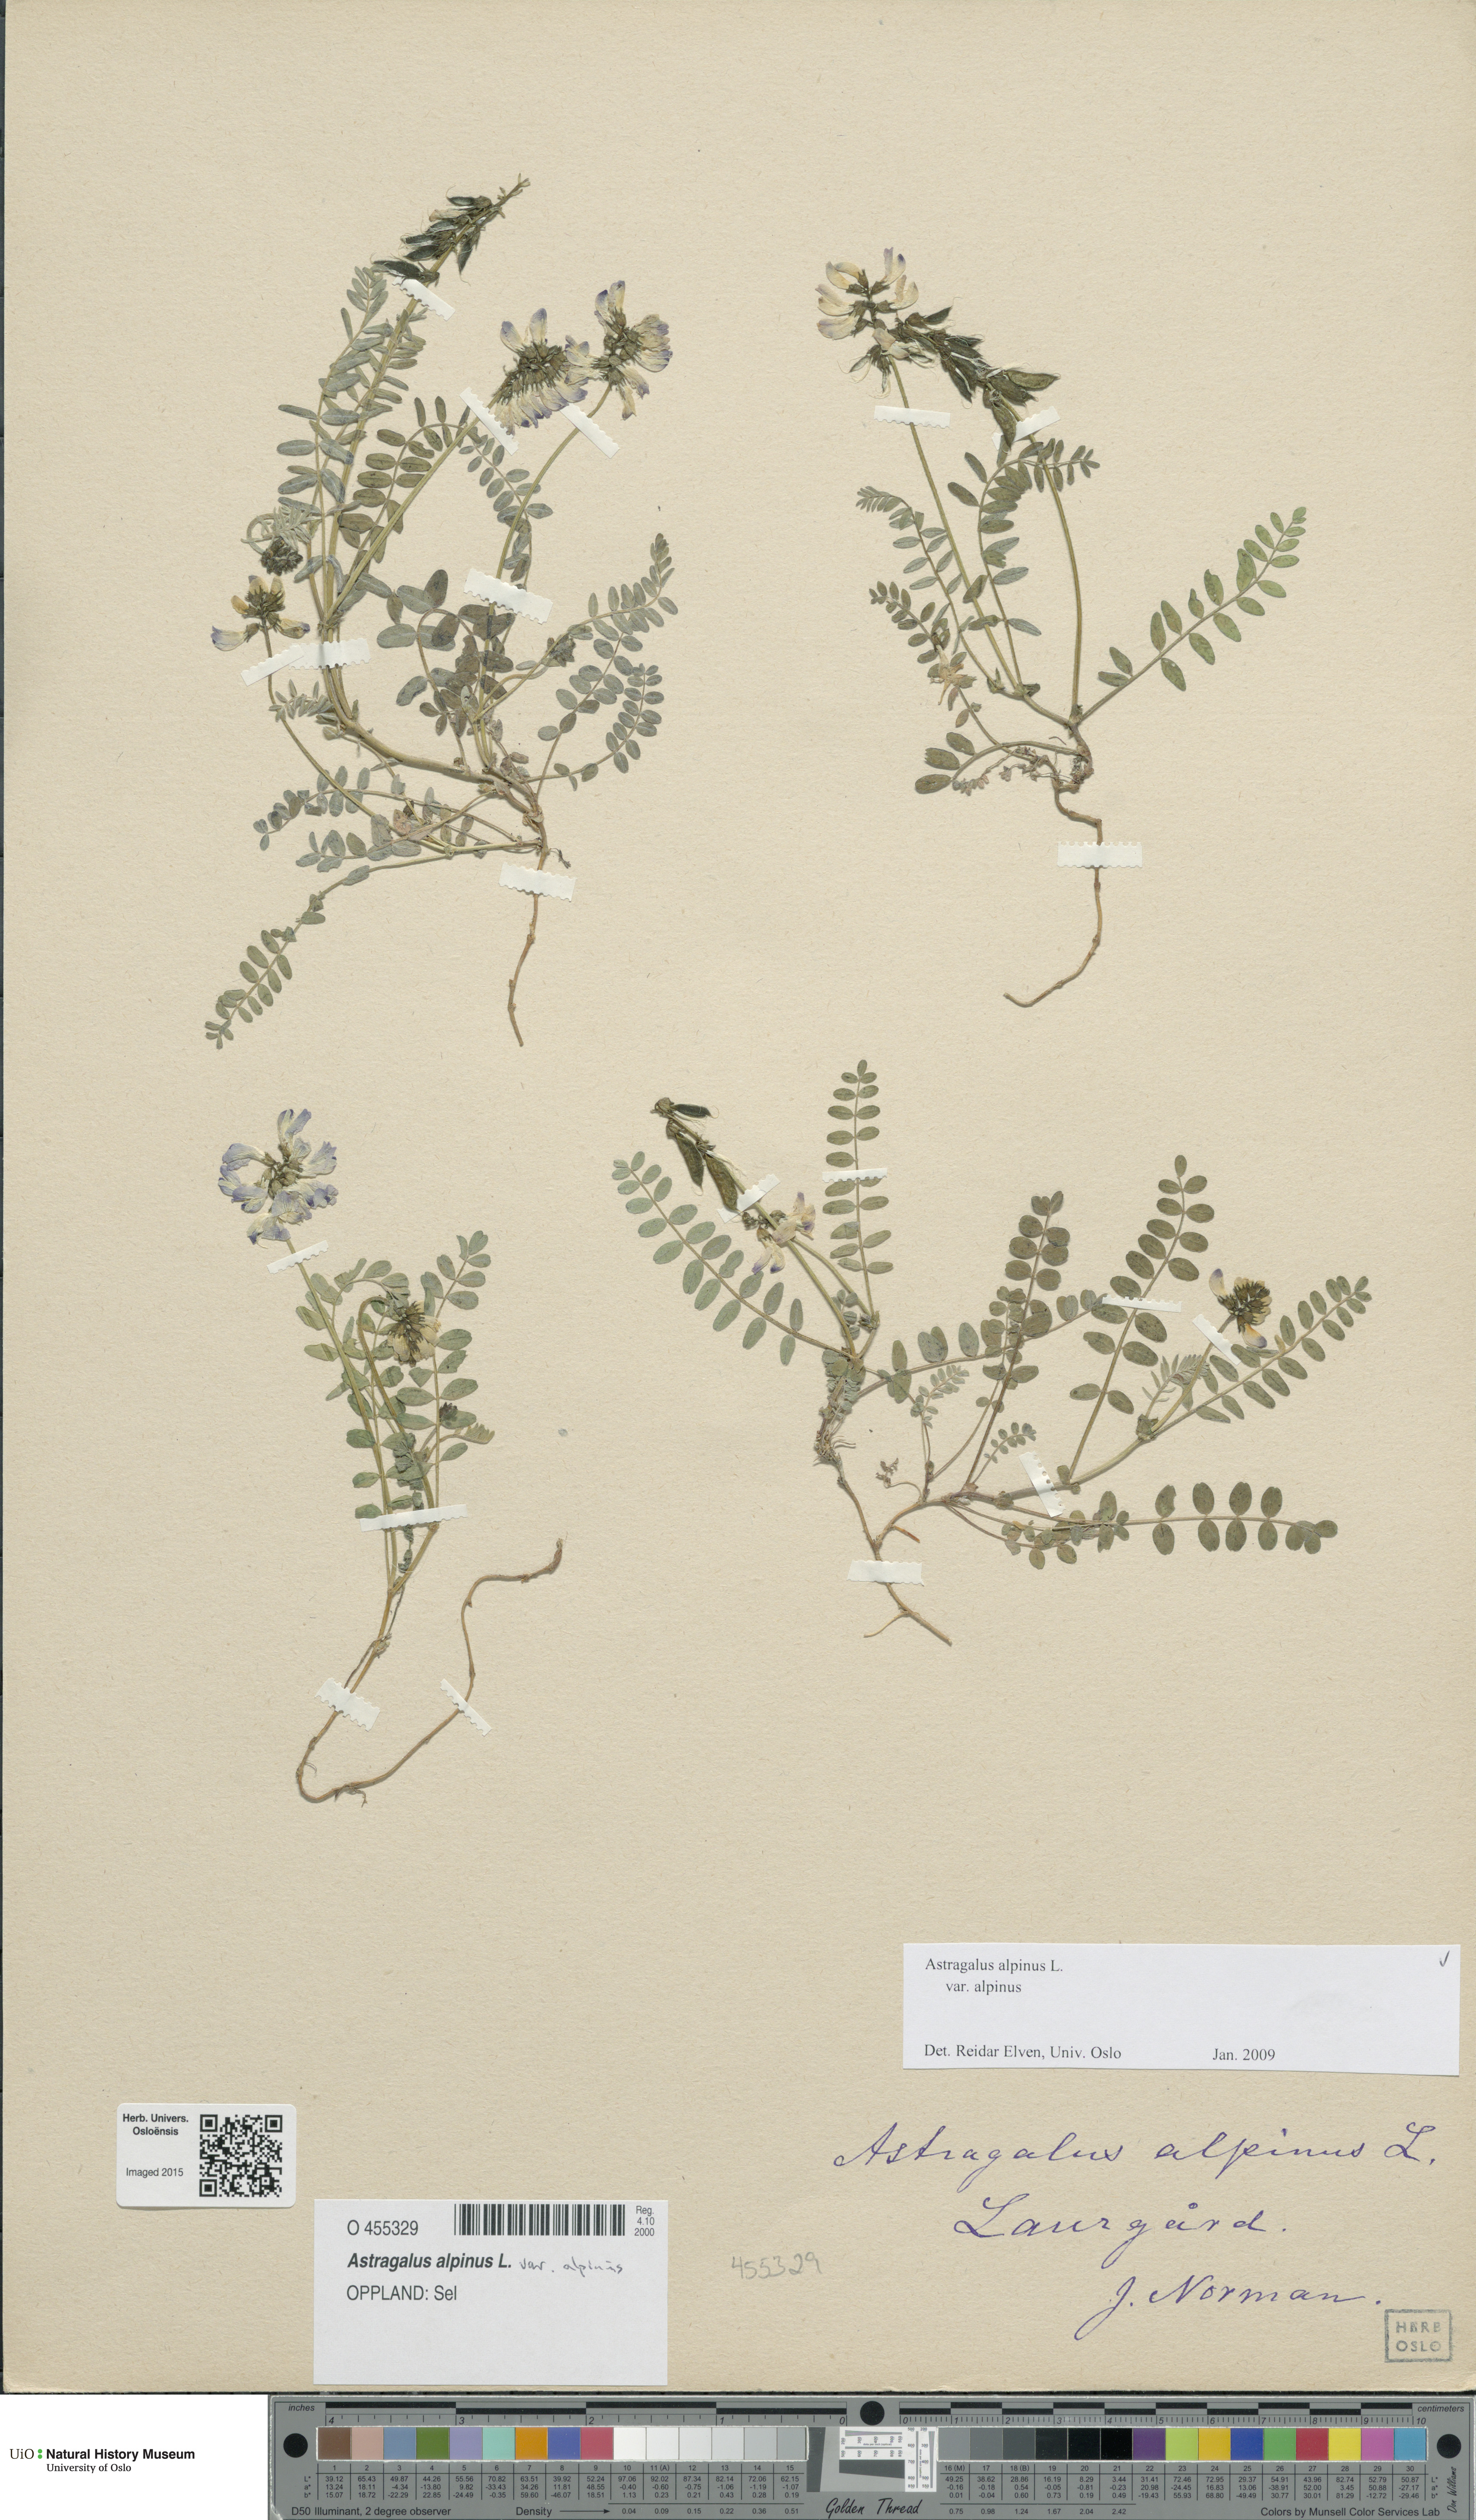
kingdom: Plantae
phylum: Tracheophyta
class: Magnoliopsida
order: Fabales
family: Fabaceae
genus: Astragalus
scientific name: Astragalus alpinus
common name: Alpine milk-vetch
